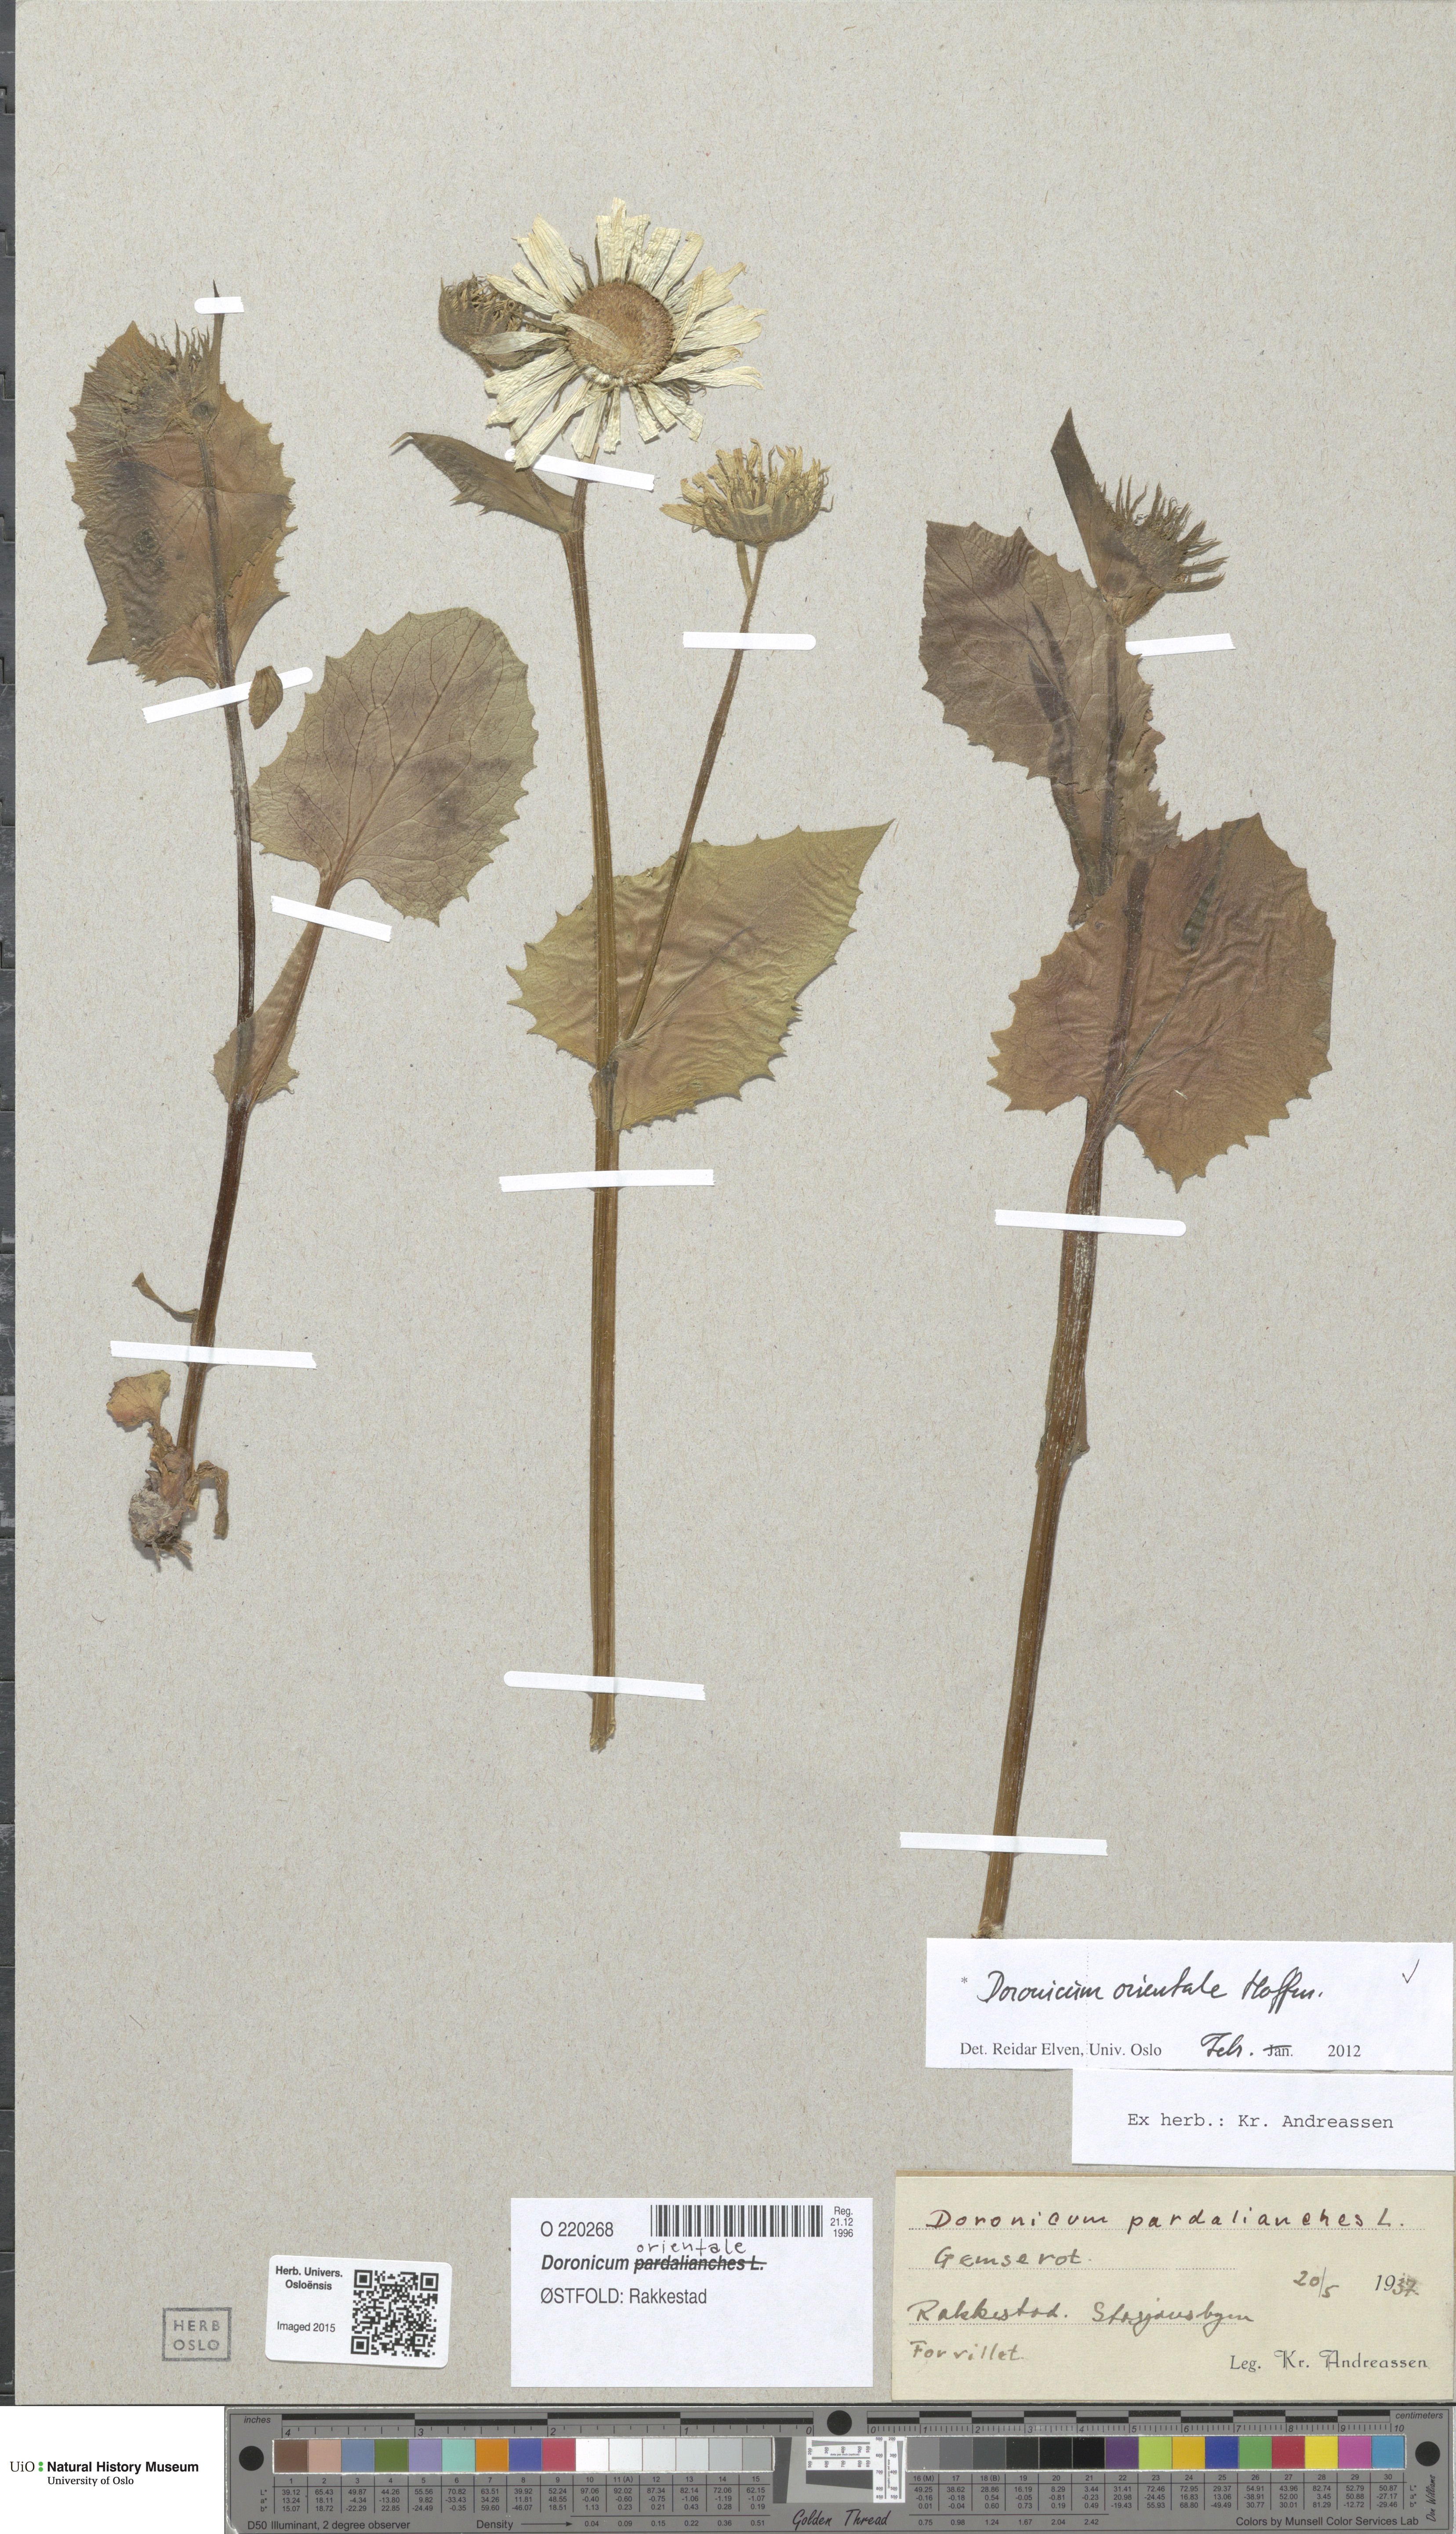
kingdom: Plantae
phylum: Tracheophyta
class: Magnoliopsida
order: Asterales
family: Asteraceae
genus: Doronicum
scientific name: Doronicum columnae
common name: Eastern leopard's-bane
